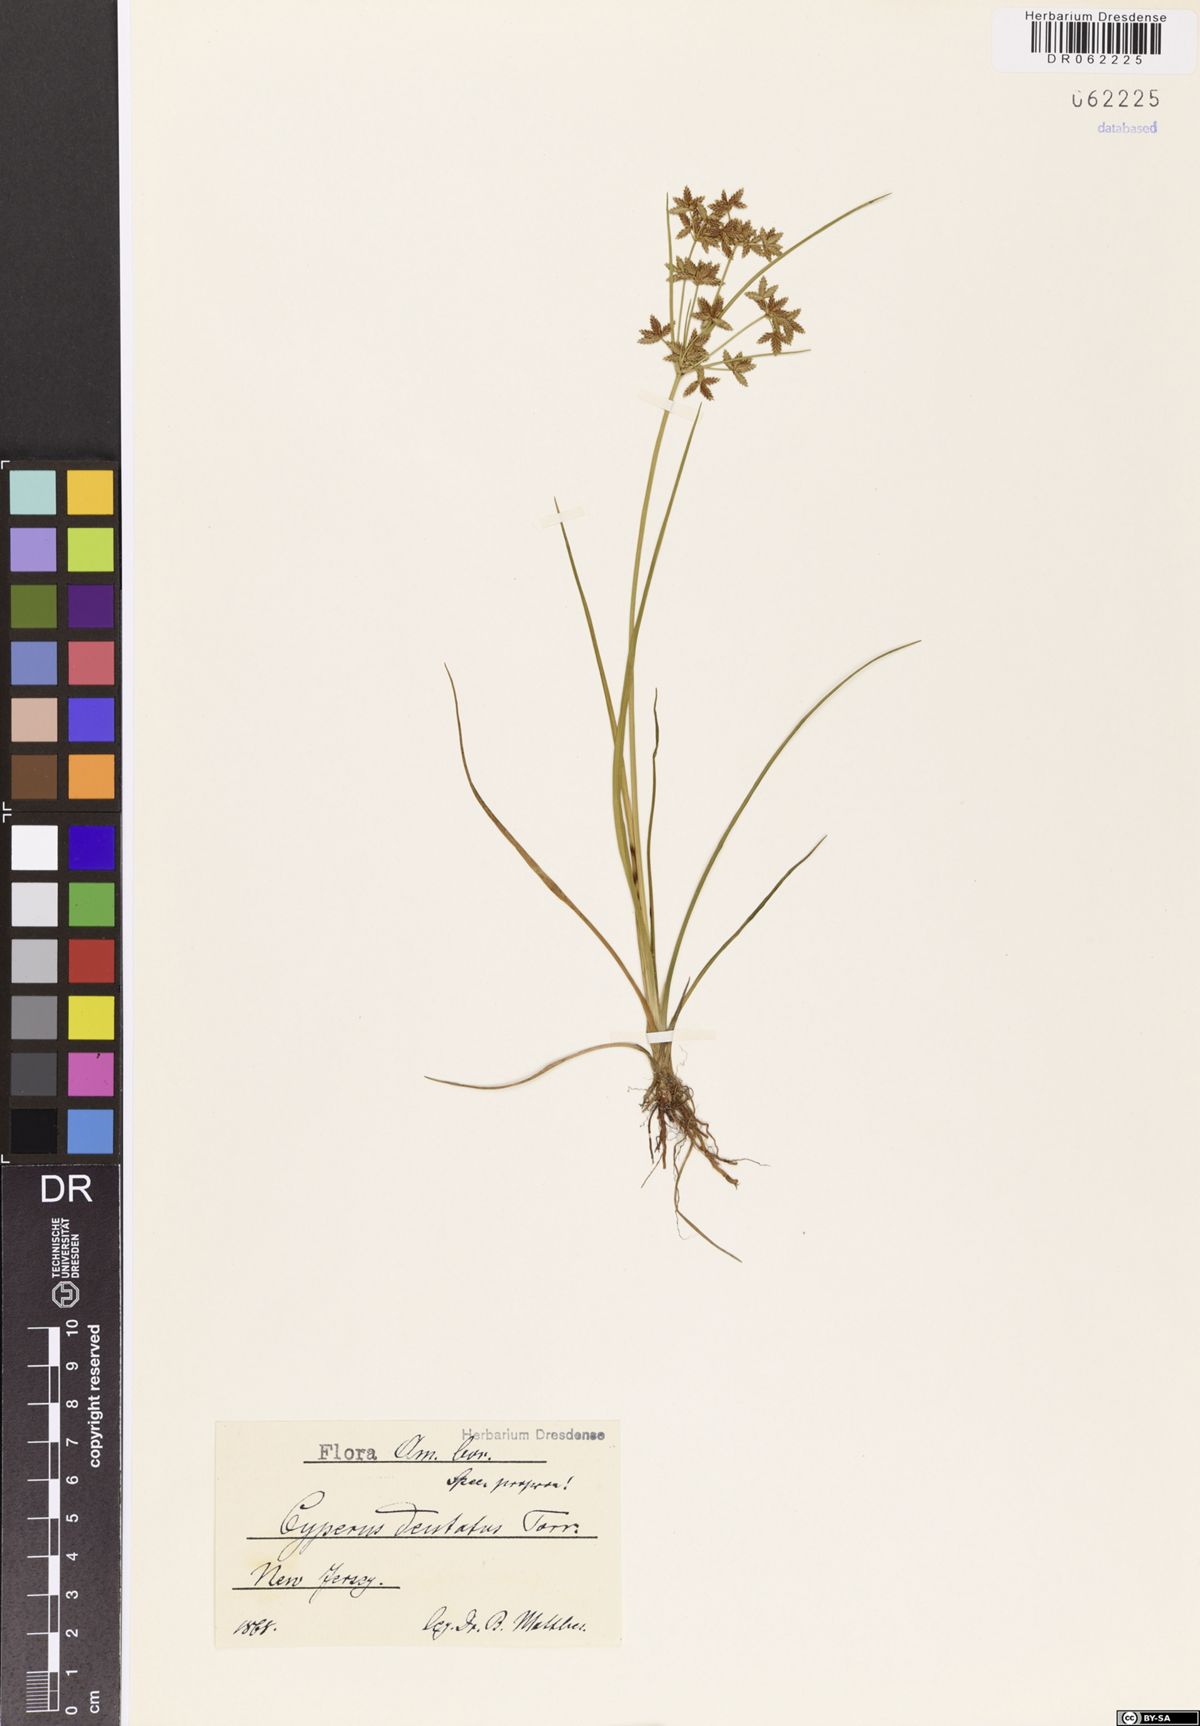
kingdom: Plantae
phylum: Tracheophyta
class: Liliopsida
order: Poales
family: Cyperaceae
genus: Cyperus
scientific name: Cyperus dentatus
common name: Dentate umbrella sedge
